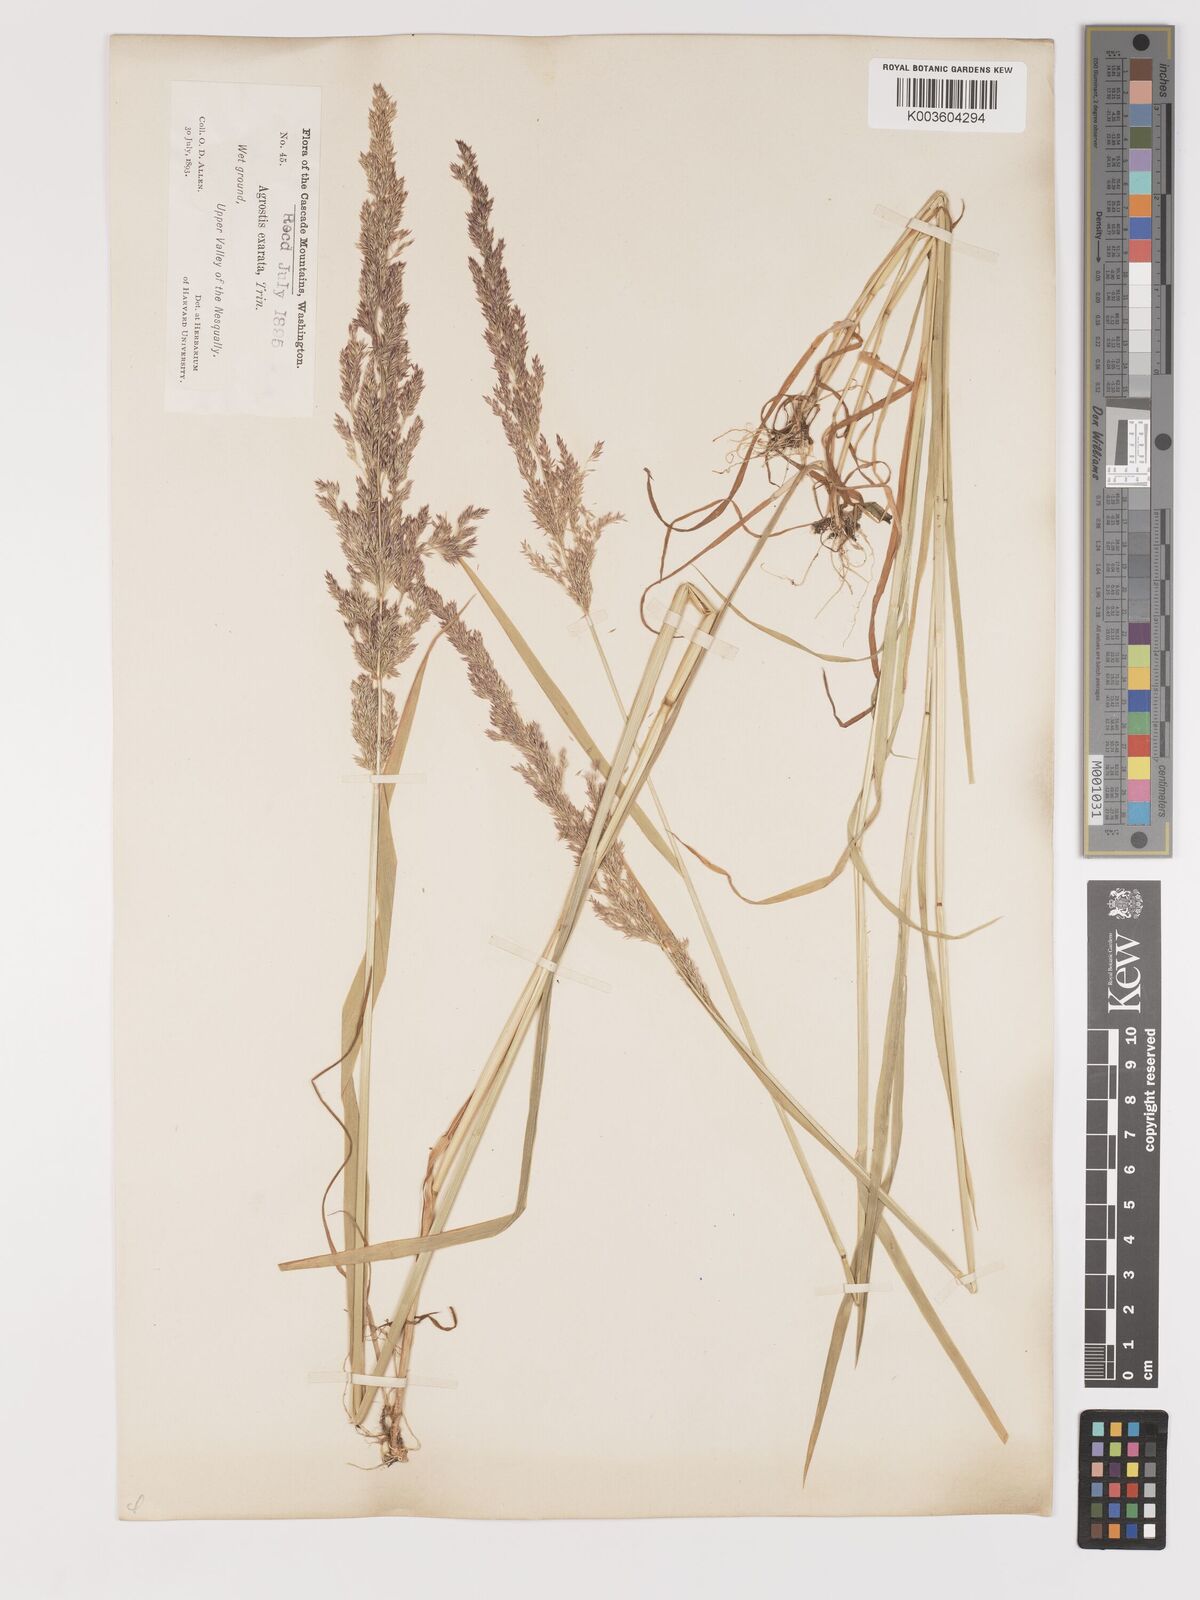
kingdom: Plantae
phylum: Tracheophyta
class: Liliopsida
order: Poales
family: Poaceae
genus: Agrostis
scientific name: Agrostis exarata
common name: Spike bent
